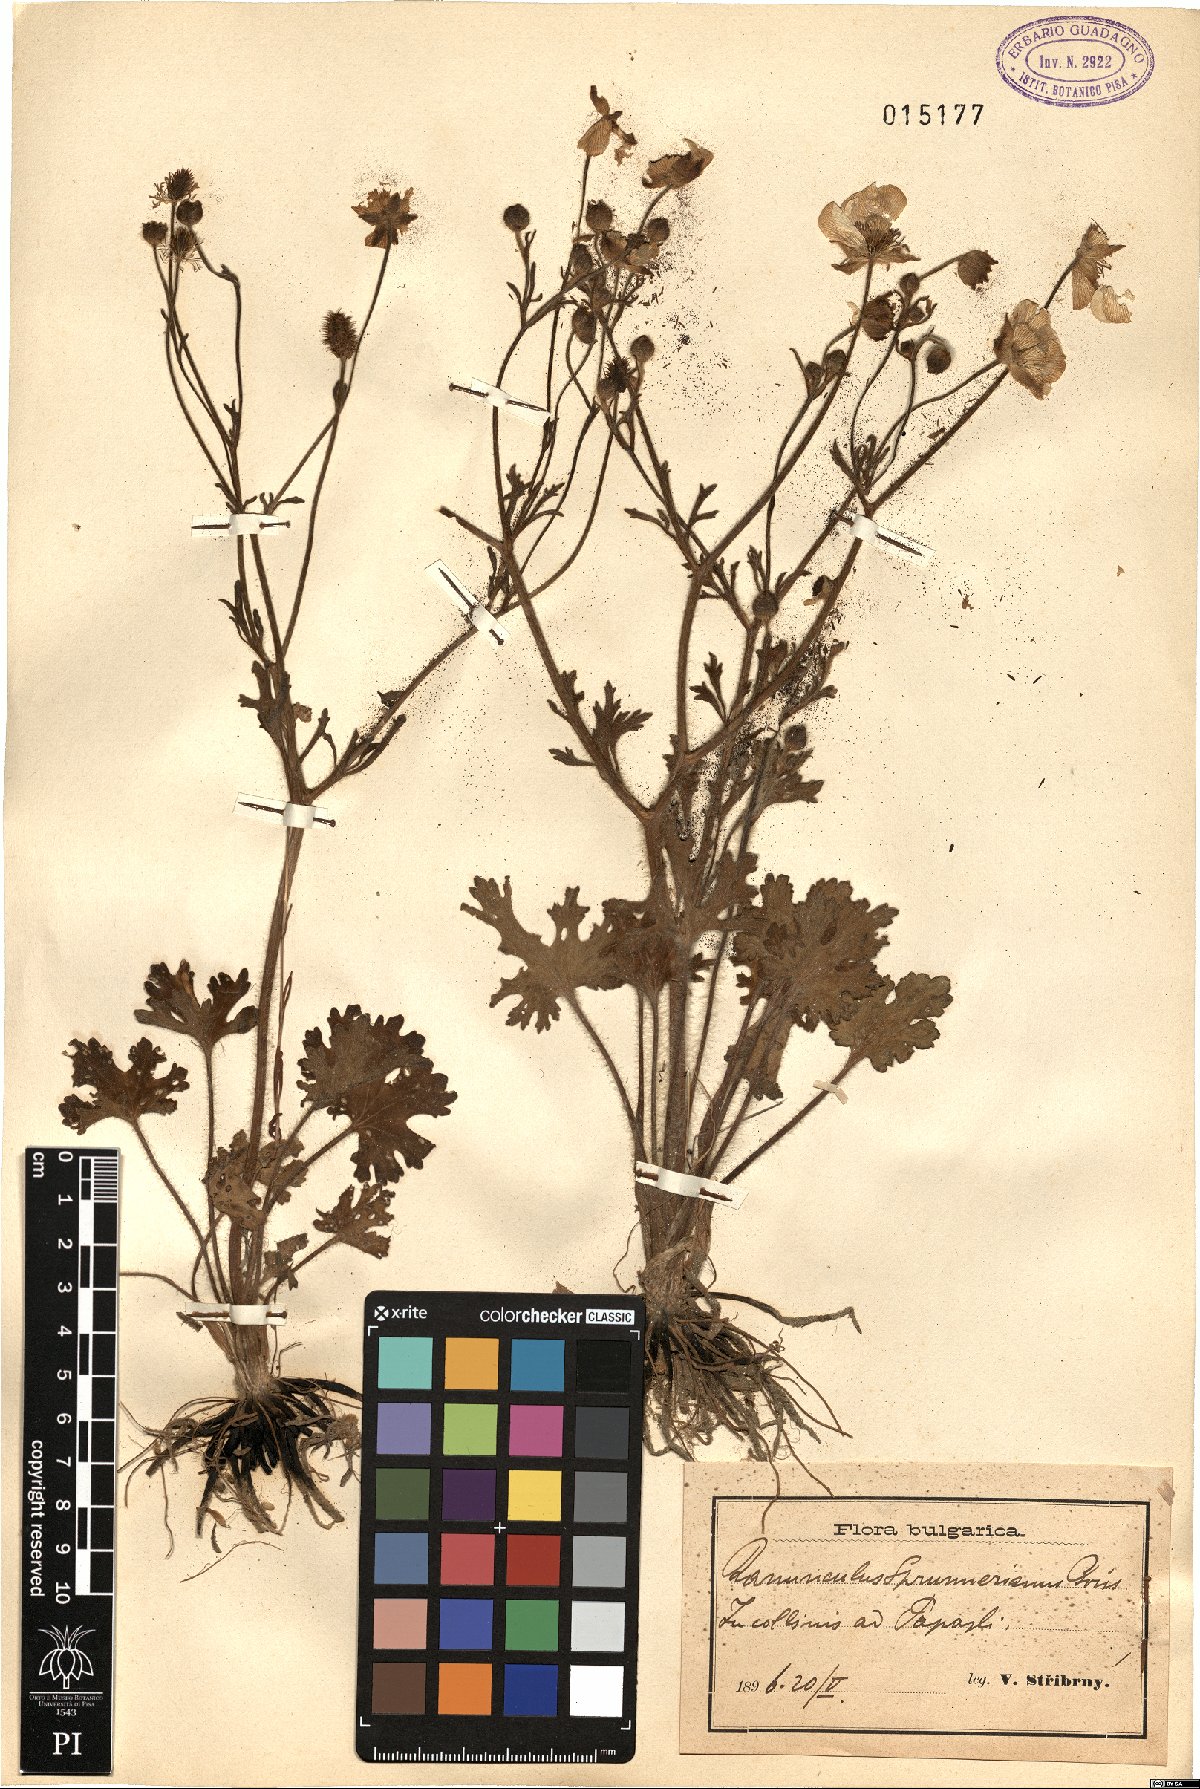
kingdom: Plantae
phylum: Tracheophyta
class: Magnoliopsida
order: Ranunculales
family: Ranunculaceae
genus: Ranunculus
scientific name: Ranunculus sprunerianus
